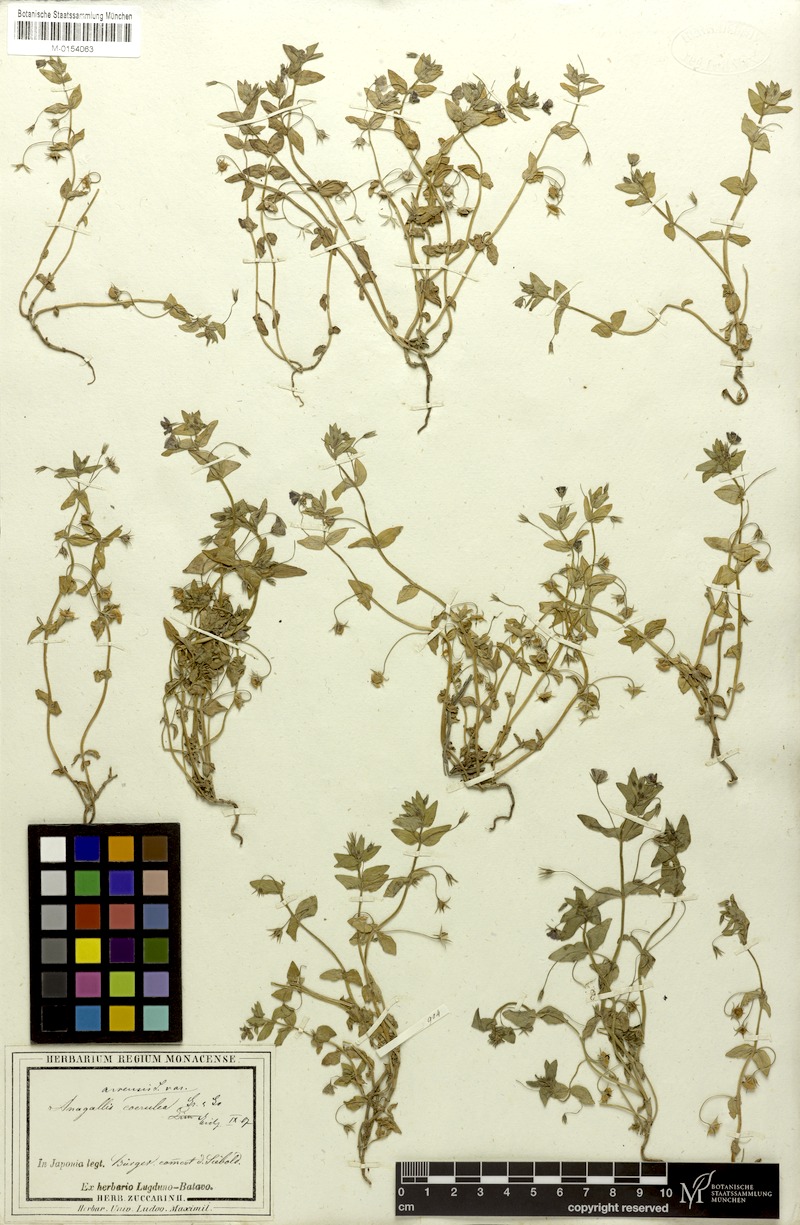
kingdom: Plantae
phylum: Tracheophyta
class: Magnoliopsida
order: Ericales
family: Primulaceae
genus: Lysimachia
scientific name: Lysimachia loeflingii
